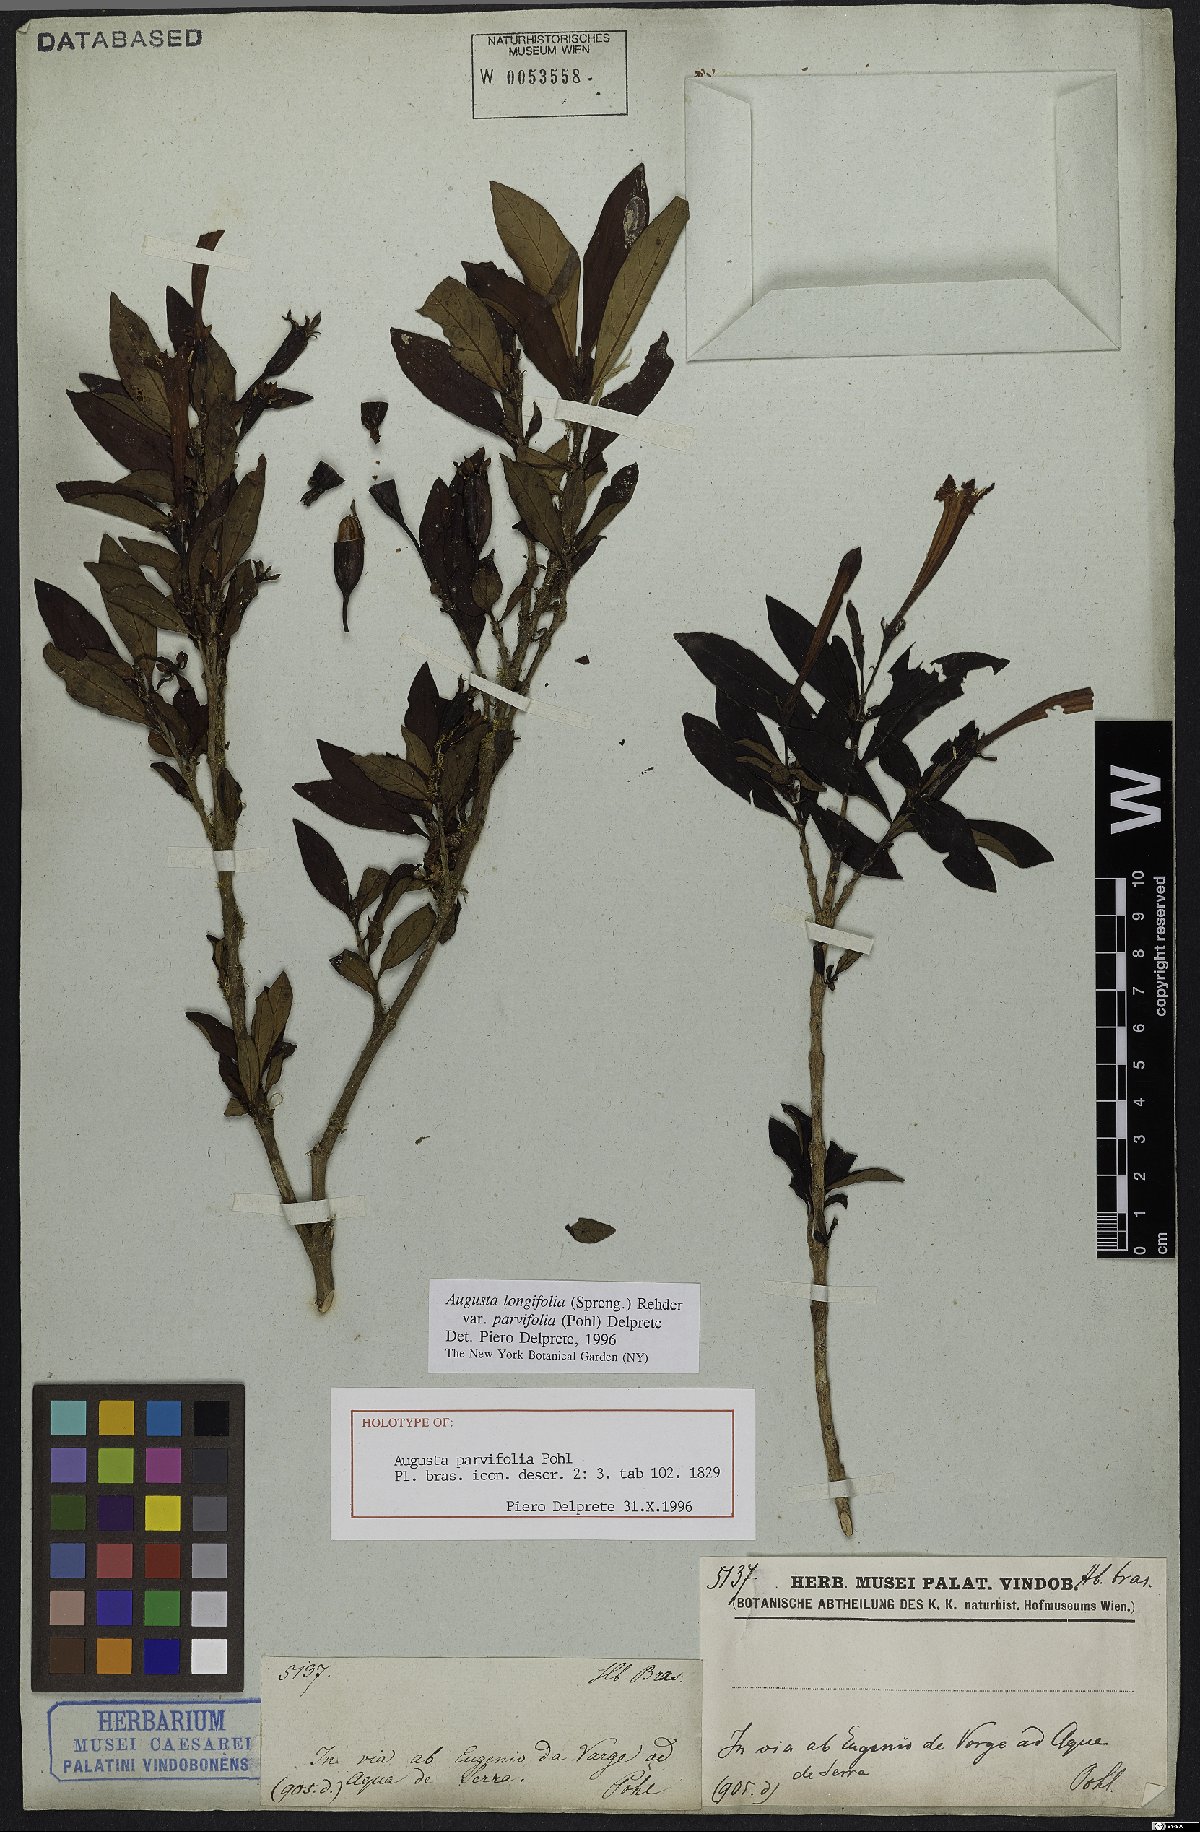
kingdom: Plantae
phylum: Tracheophyta
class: Magnoliopsida
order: Gentianales
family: Rubiaceae
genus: Augusta
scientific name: Augusta longifolia
